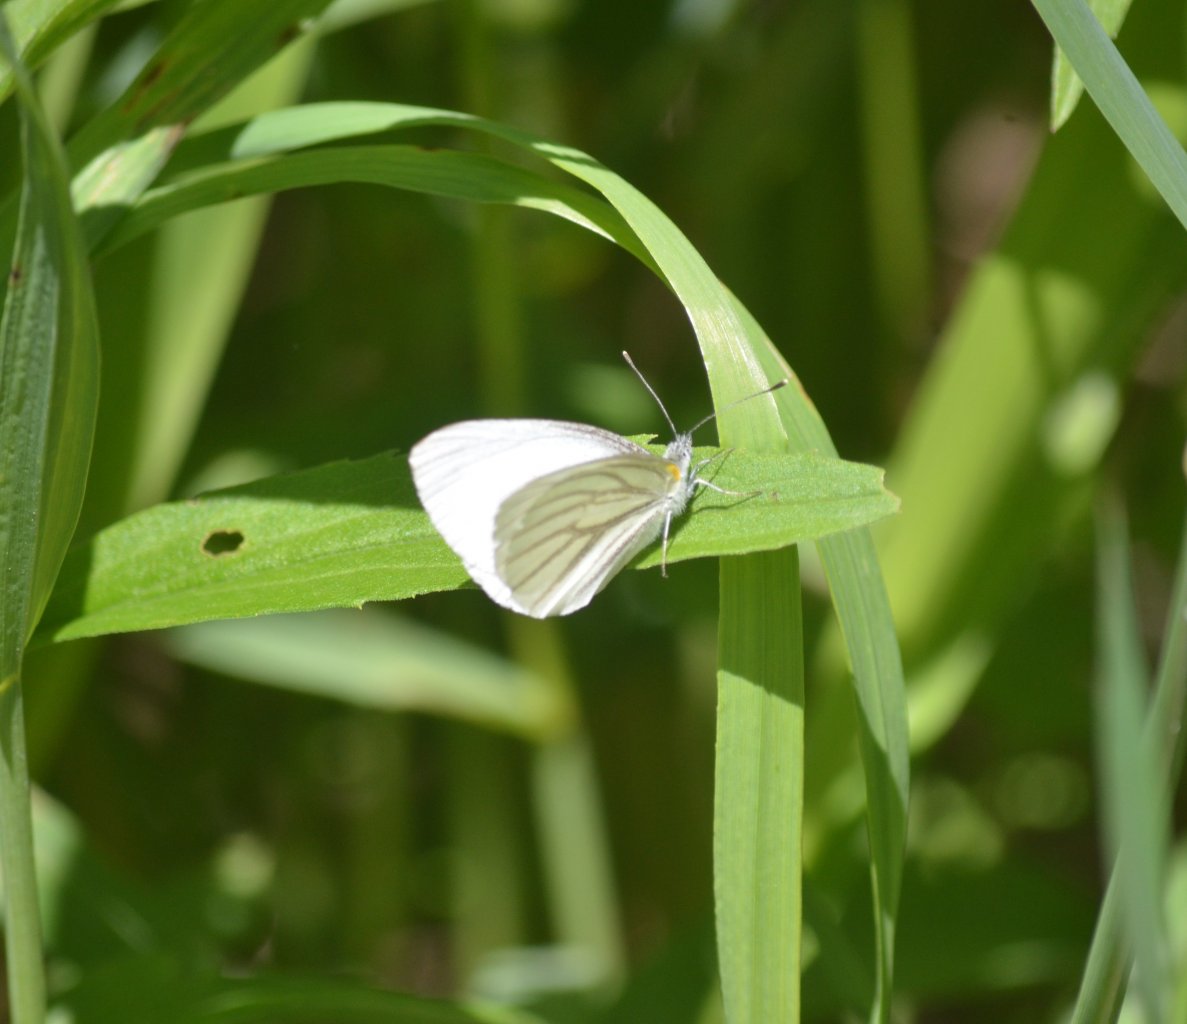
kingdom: Animalia
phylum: Arthropoda
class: Insecta
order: Lepidoptera
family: Pieridae
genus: Pieris
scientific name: Pieris oleracea
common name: Mustard White
